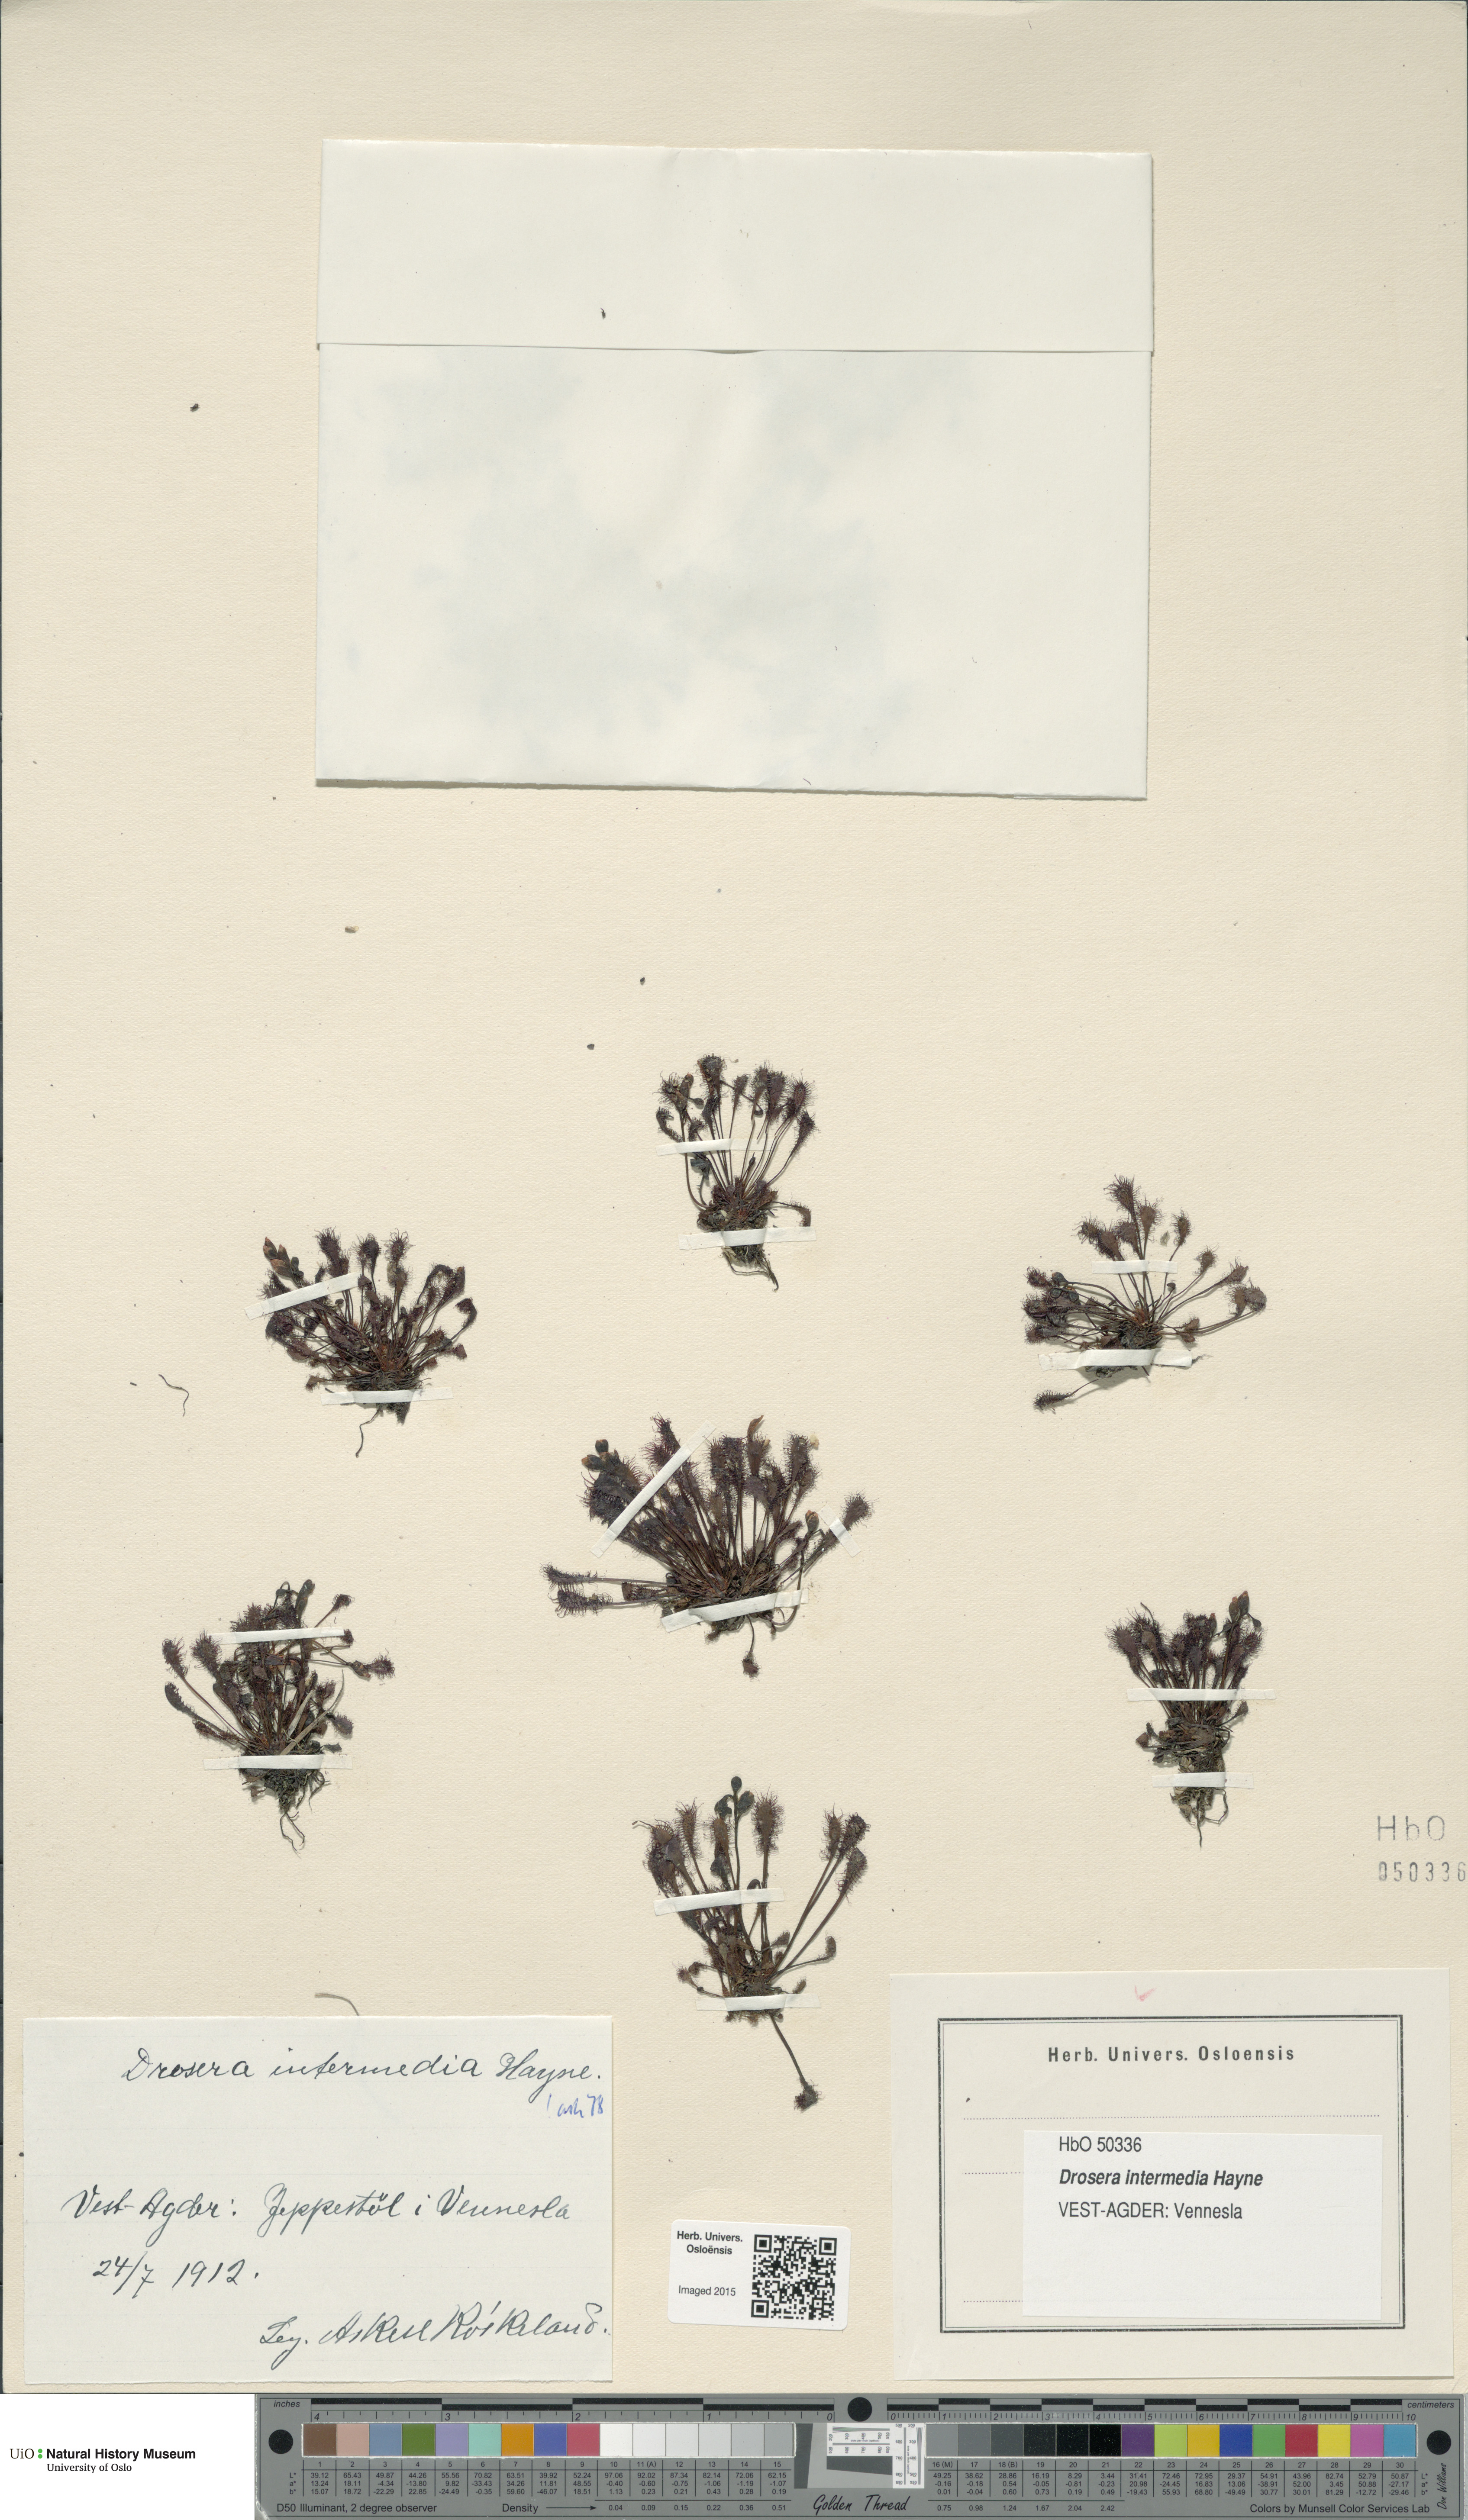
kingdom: Plantae
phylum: Tracheophyta
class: Magnoliopsida
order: Caryophyllales
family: Droseraceae
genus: Drosera
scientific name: Drosera intermedia
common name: Oblong-leaved sundew
